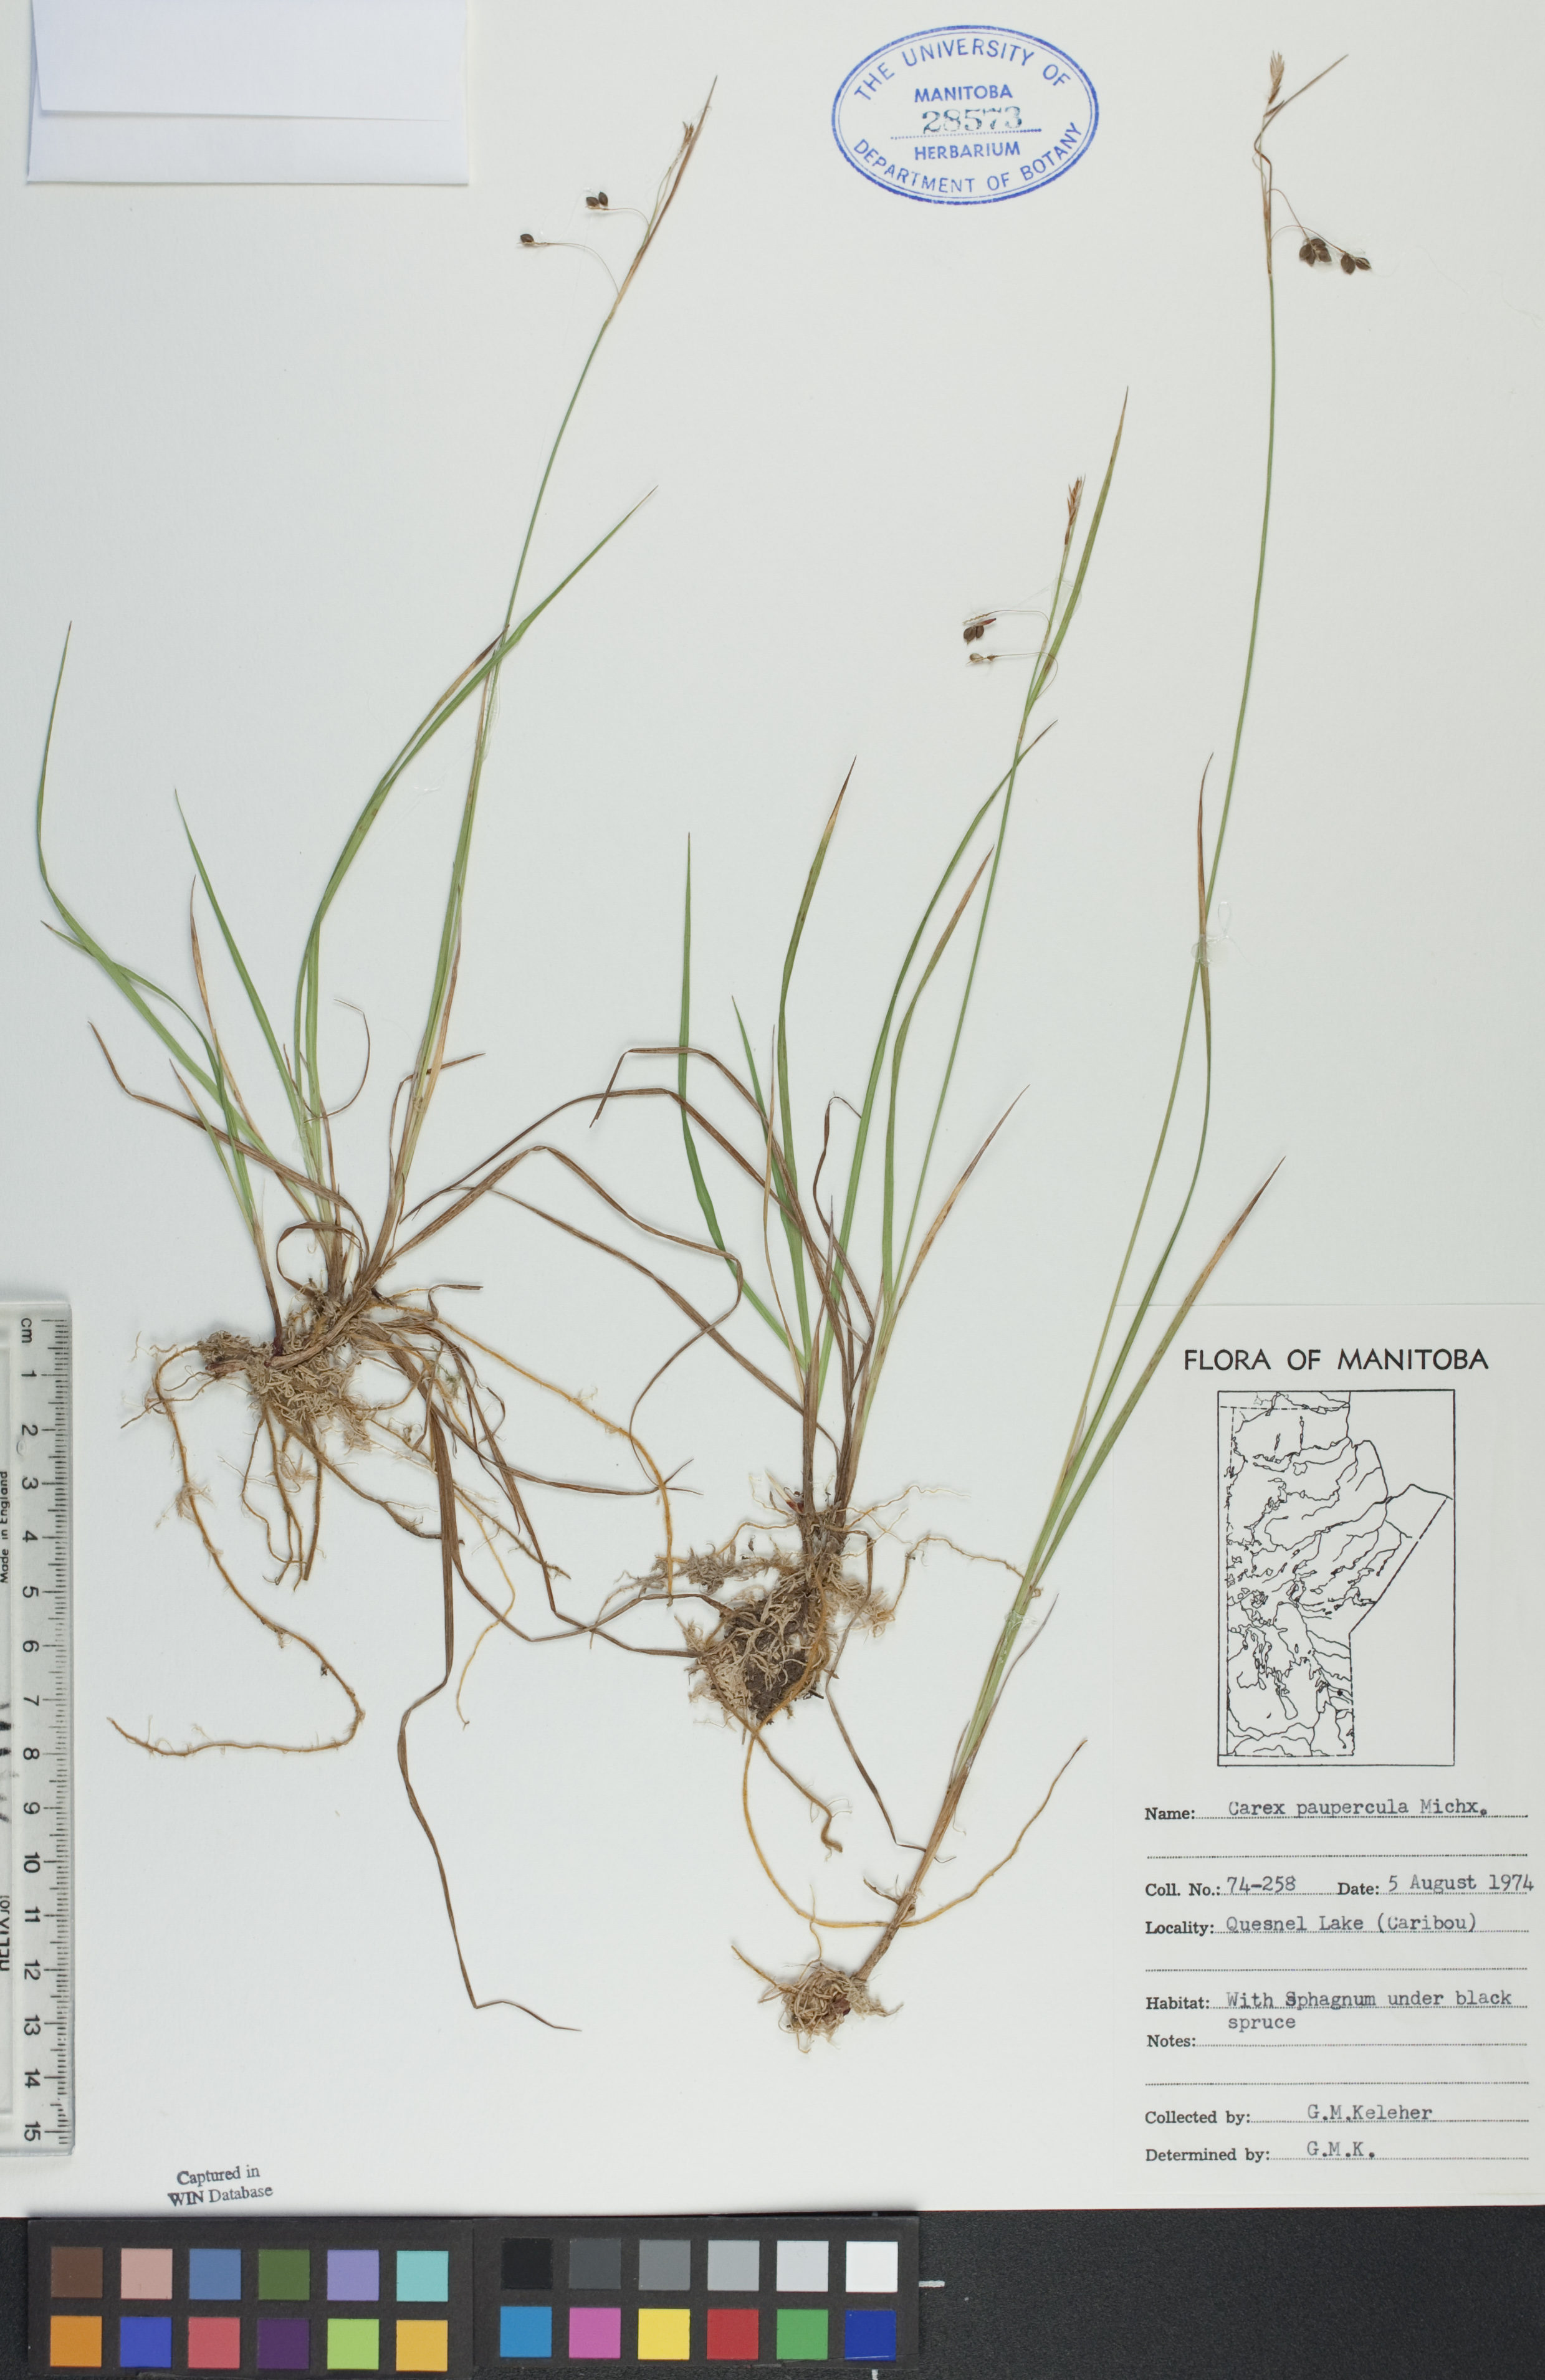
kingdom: Plantae
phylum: Tracheophyta
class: Liliopsida
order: Poales
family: Cyperaceae
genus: Carex
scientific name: Carex magellanica
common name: Bog sedge
